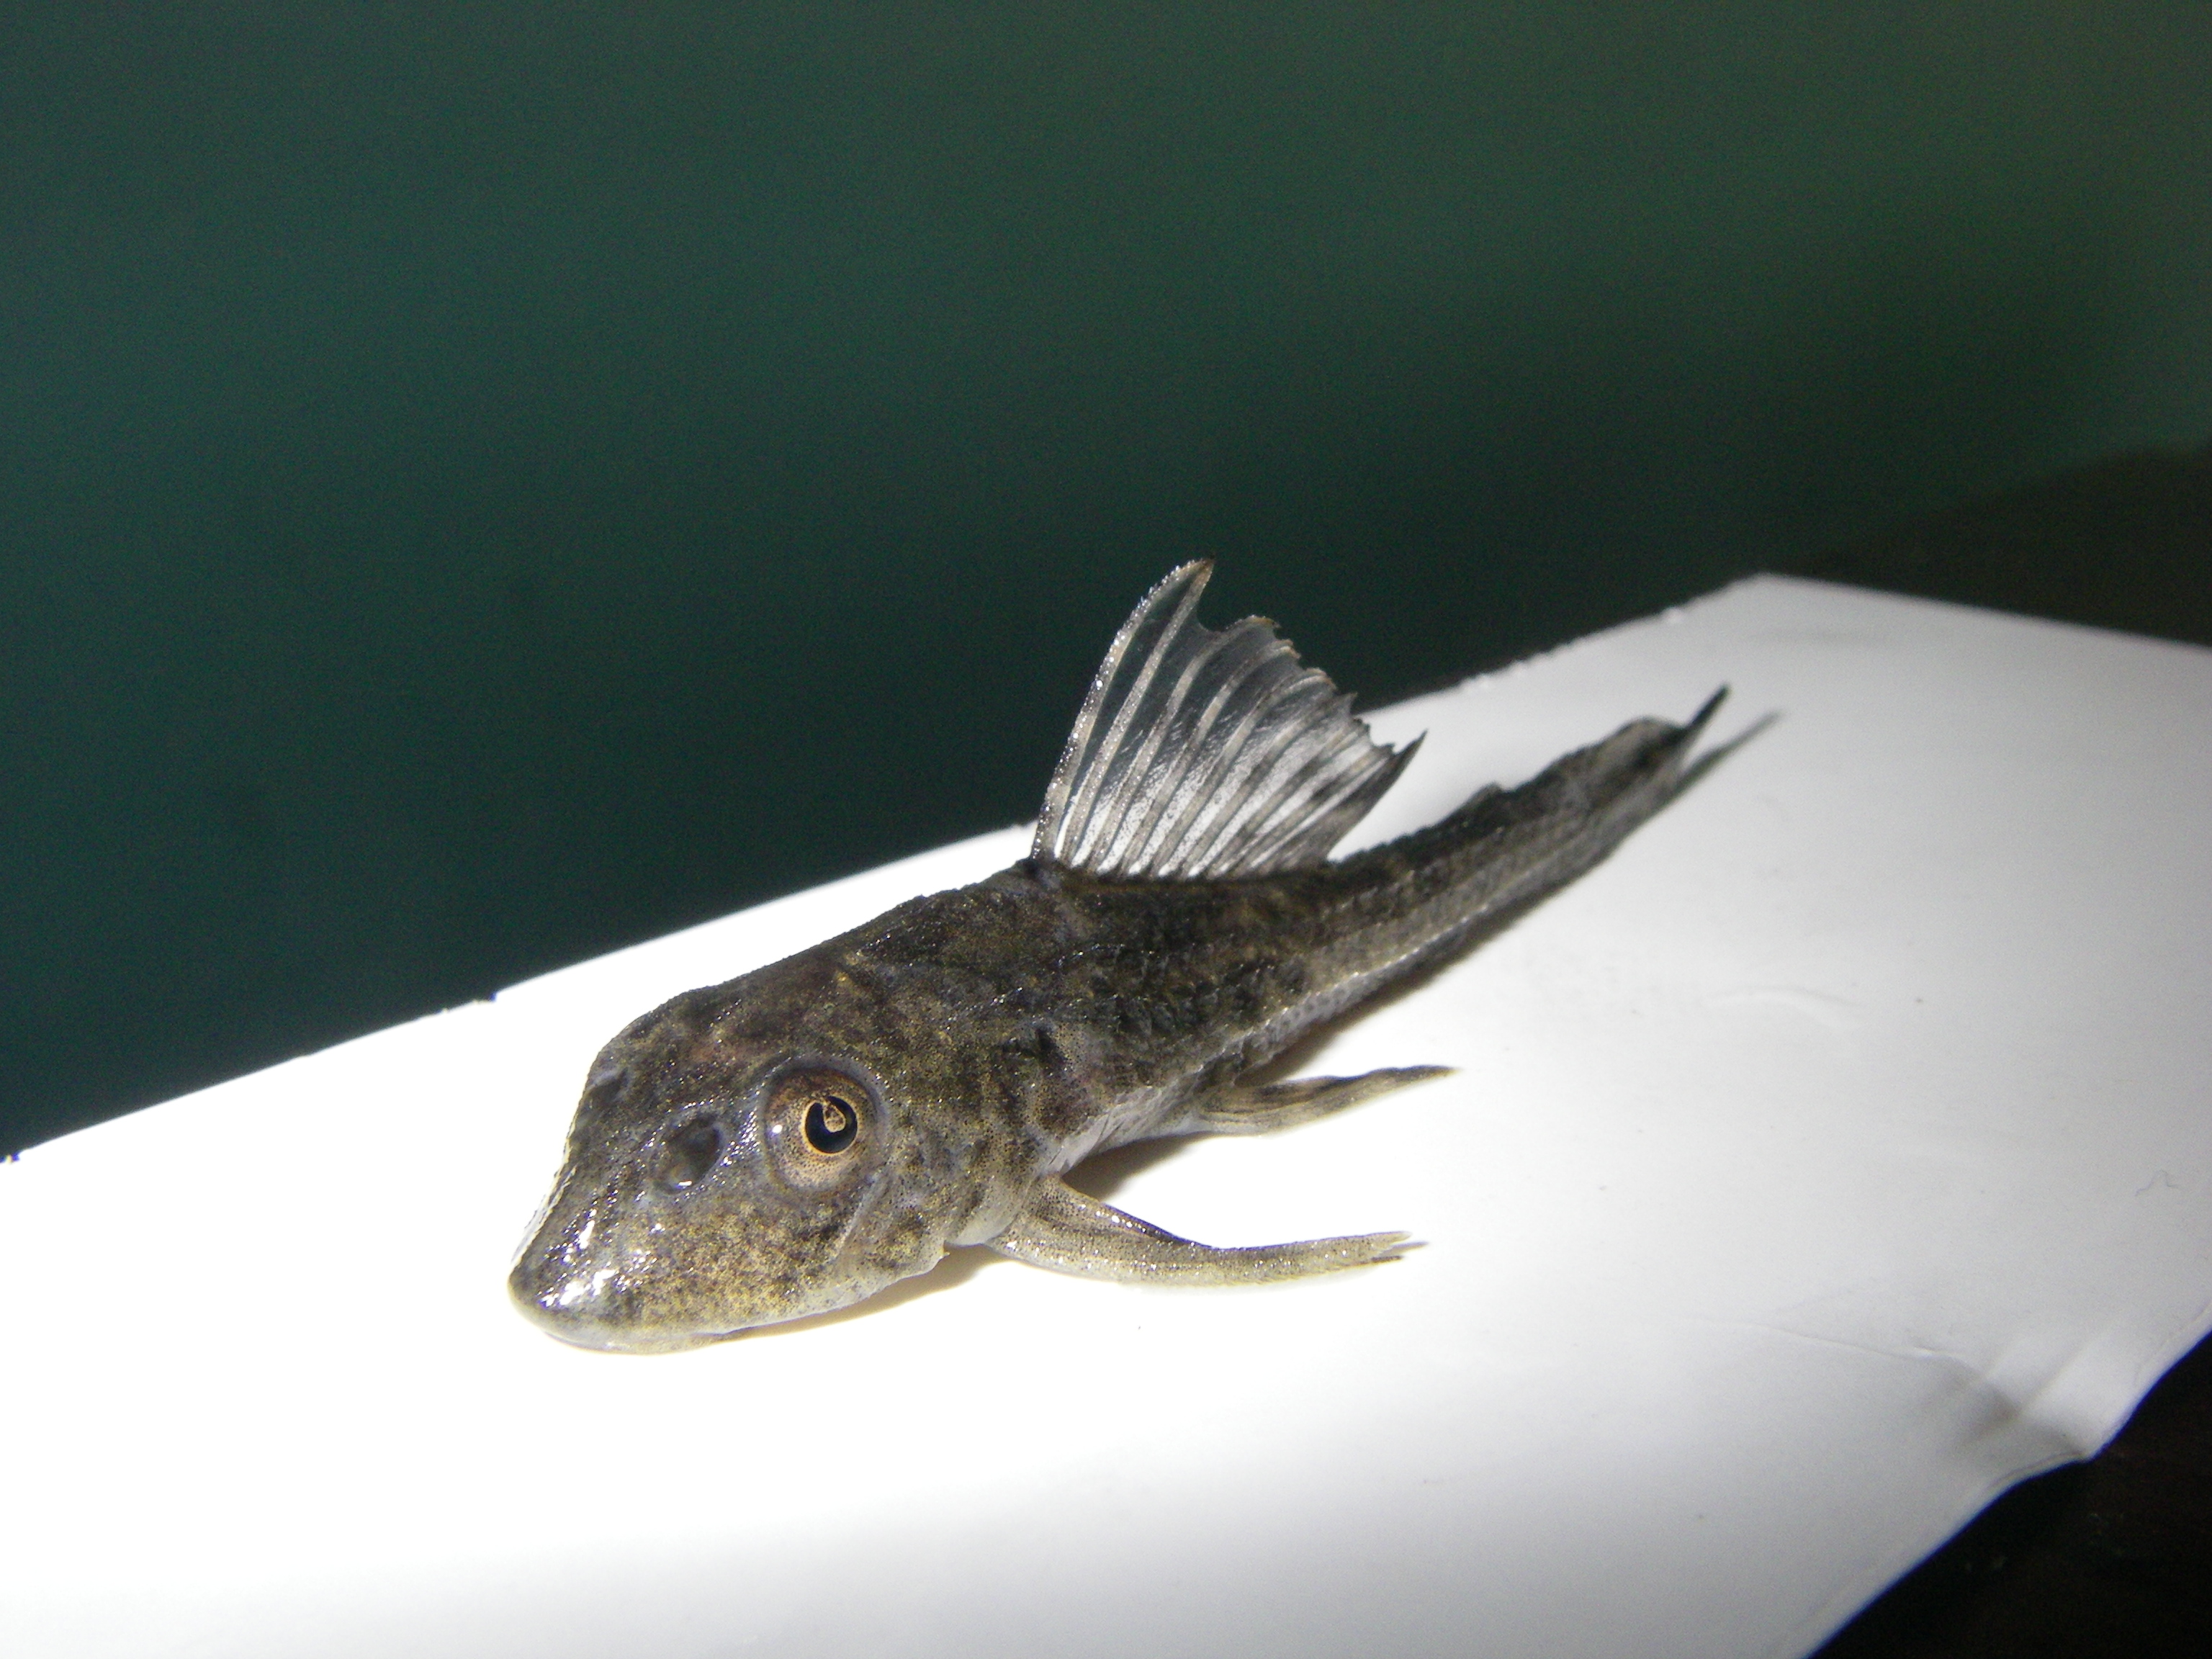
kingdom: Animalia
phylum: Chordata
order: Siluriformes
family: Loricariidae
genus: Pterygoplichthys
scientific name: Pterygoplichthys
